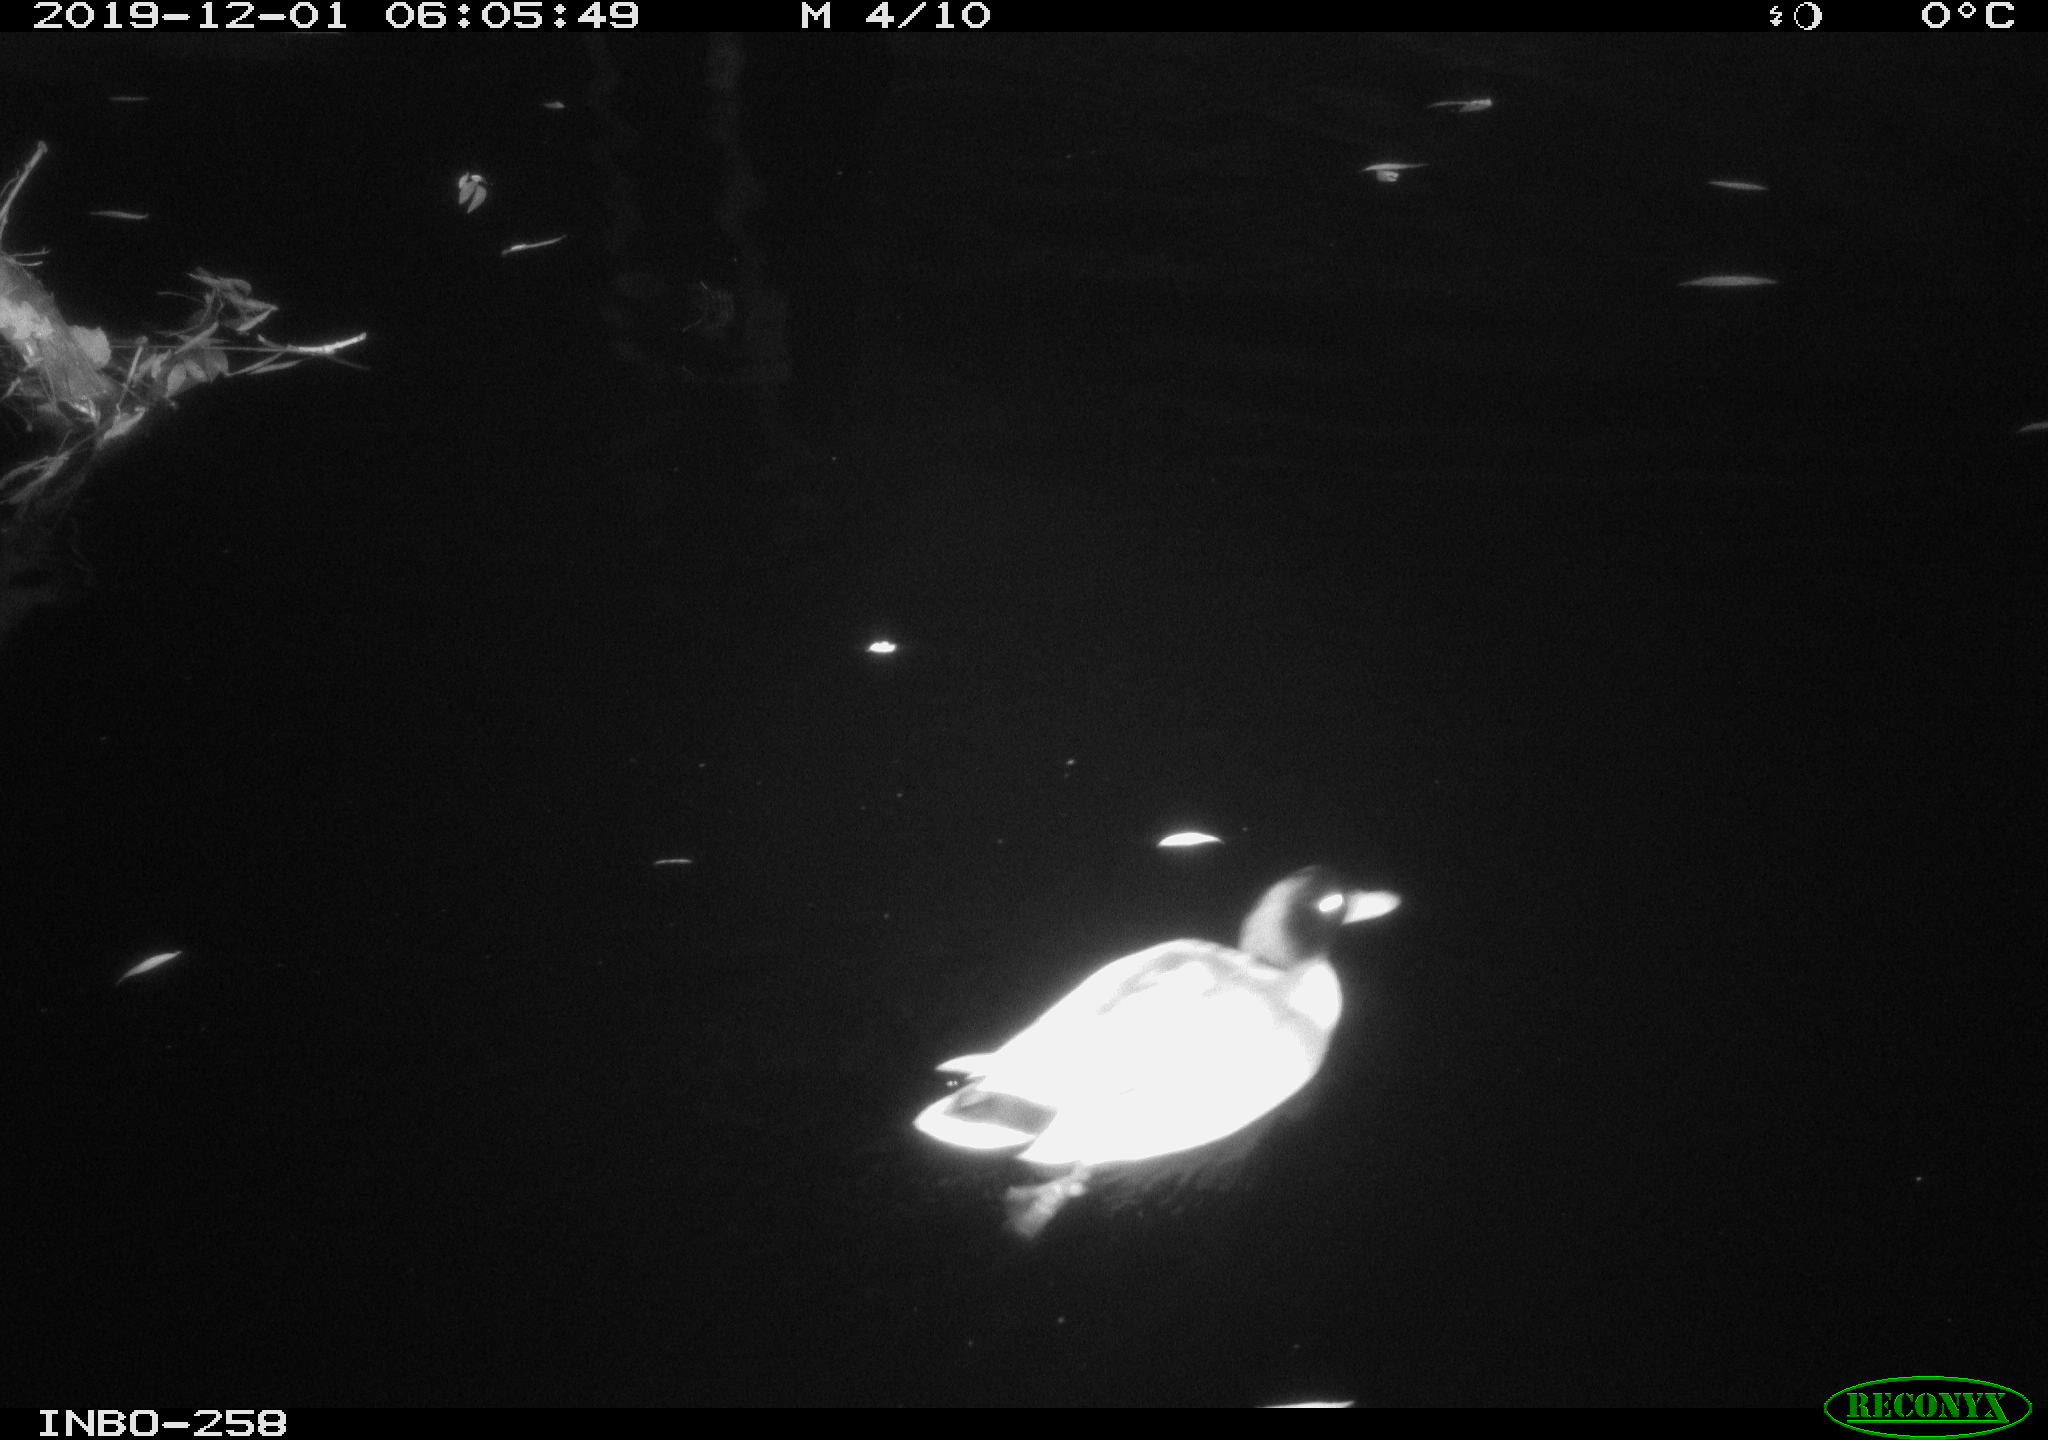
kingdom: Animalia
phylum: Chordata
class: Aves
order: Anseriformes
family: Anatidae
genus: Anas
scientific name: Anas platyrhynchos
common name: Mallard
